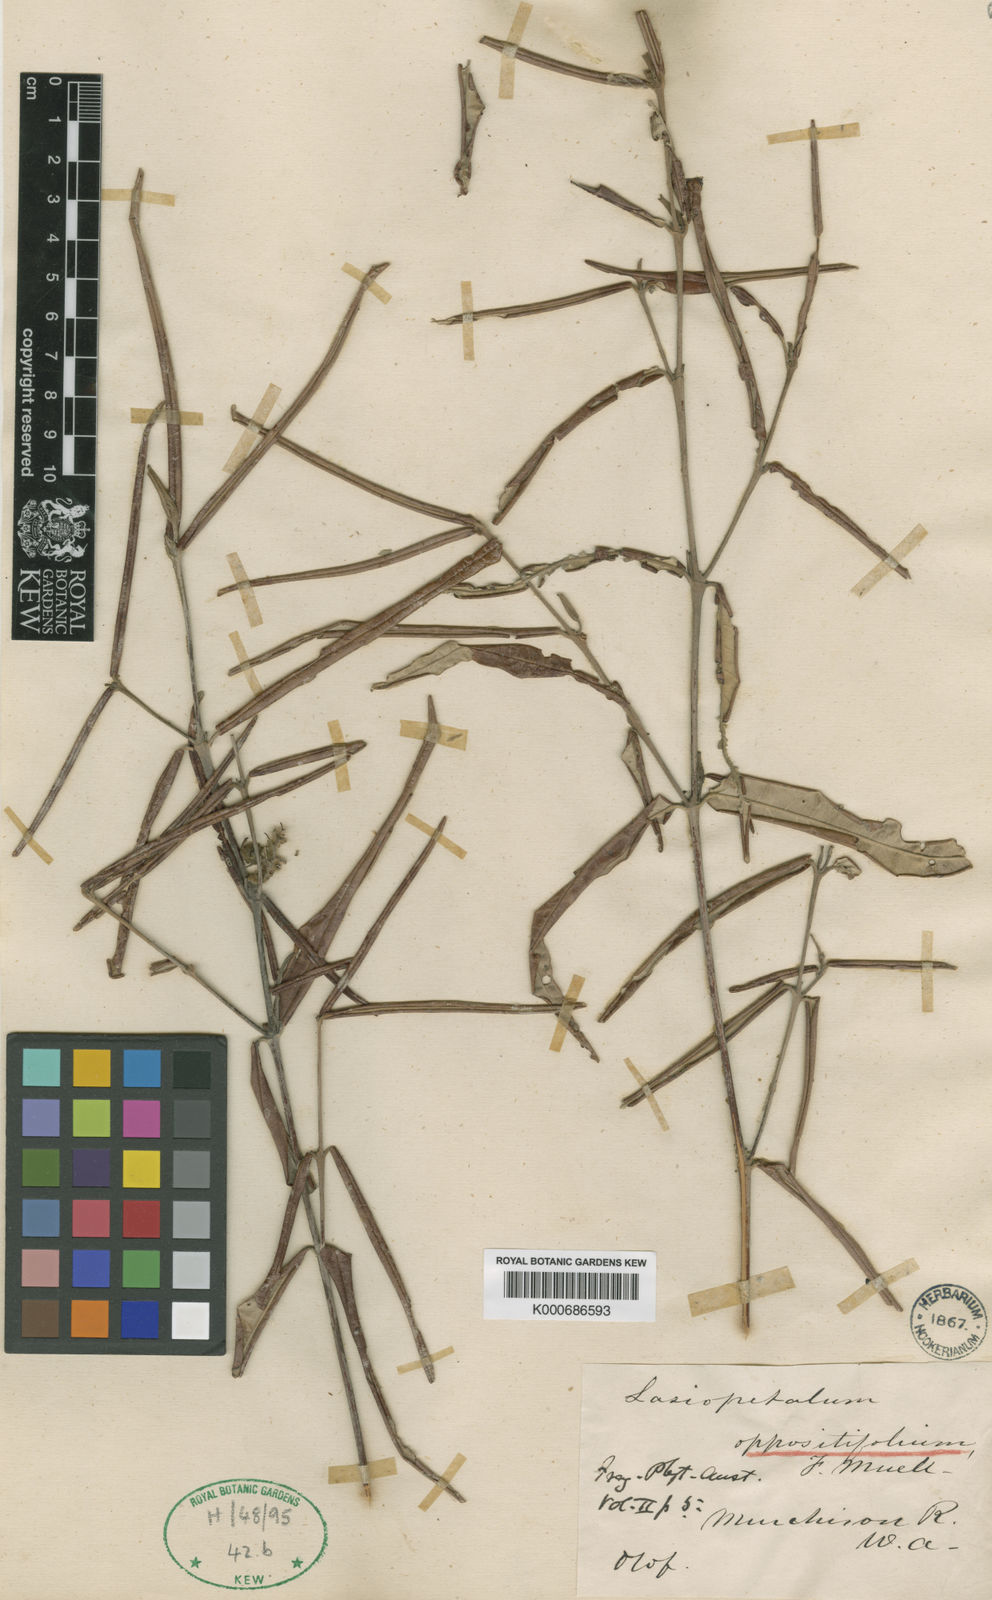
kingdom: Plantae
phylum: Tracheophyta
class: Magnoliopsida
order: Malvales
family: Malvaceae
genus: Lasiopetalum
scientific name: Lasiopetalum oppositifolium
